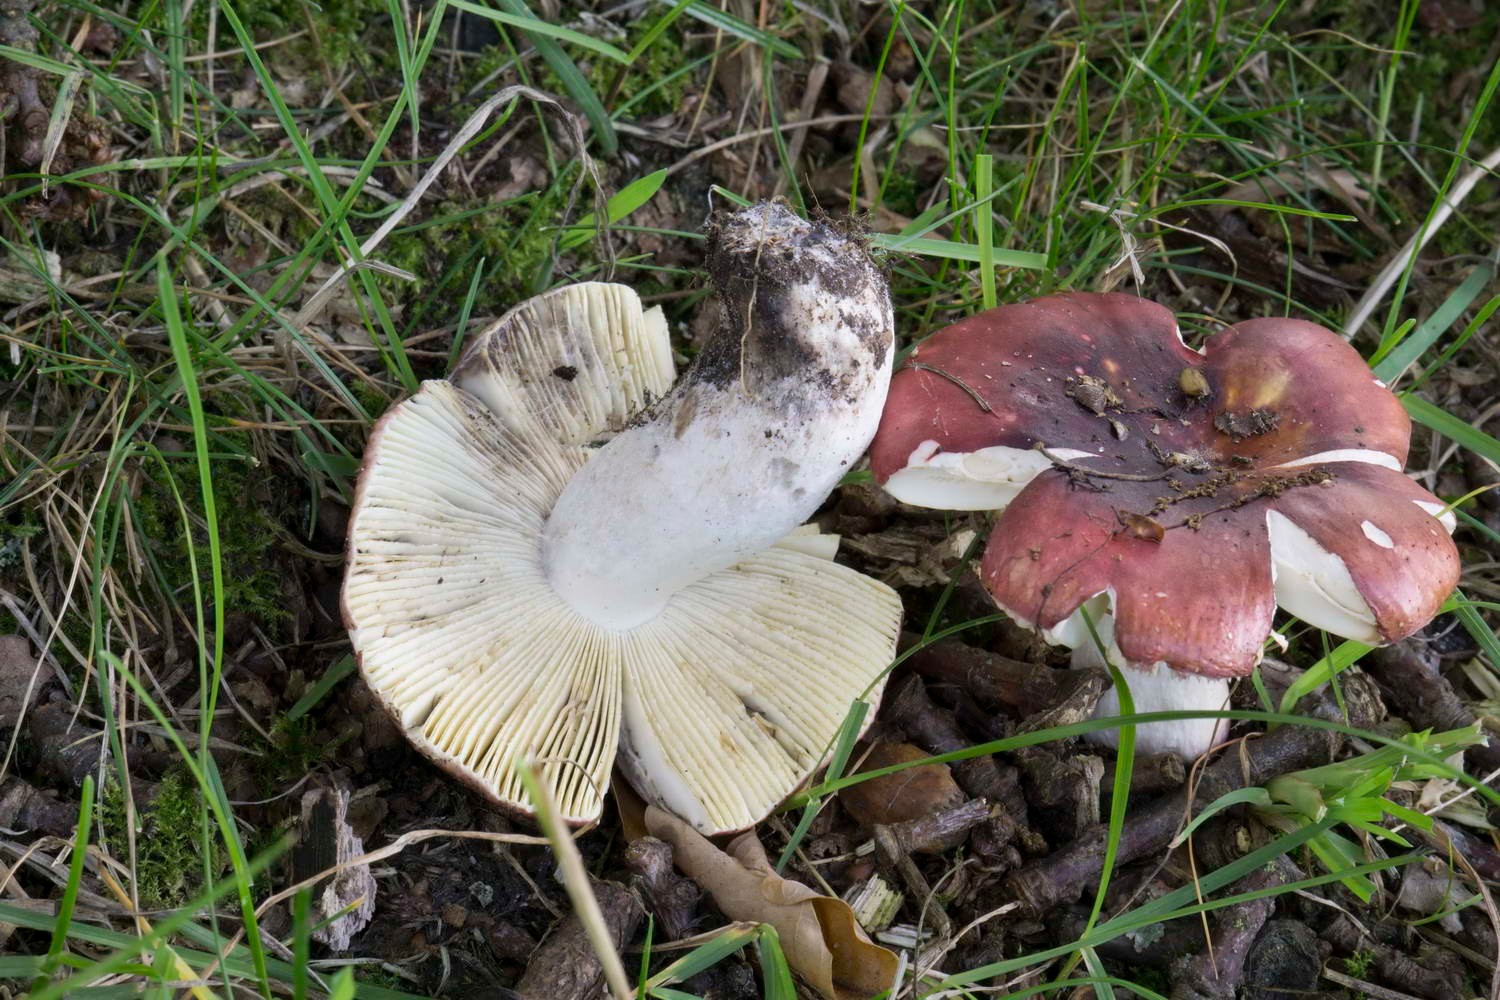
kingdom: Fungi
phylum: Basidiomycota
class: Agaricomycetes
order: Russulales
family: Russulaceae
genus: Russula
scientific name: Russula seperina
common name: rødmende skørhat
